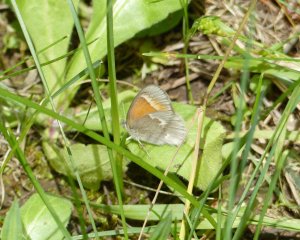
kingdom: Animalia
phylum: Arthropoda
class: Insecta
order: Lepidoptera
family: Nymphalidae
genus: Coenonympha
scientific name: Coenonympha tullia
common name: Large Heath
